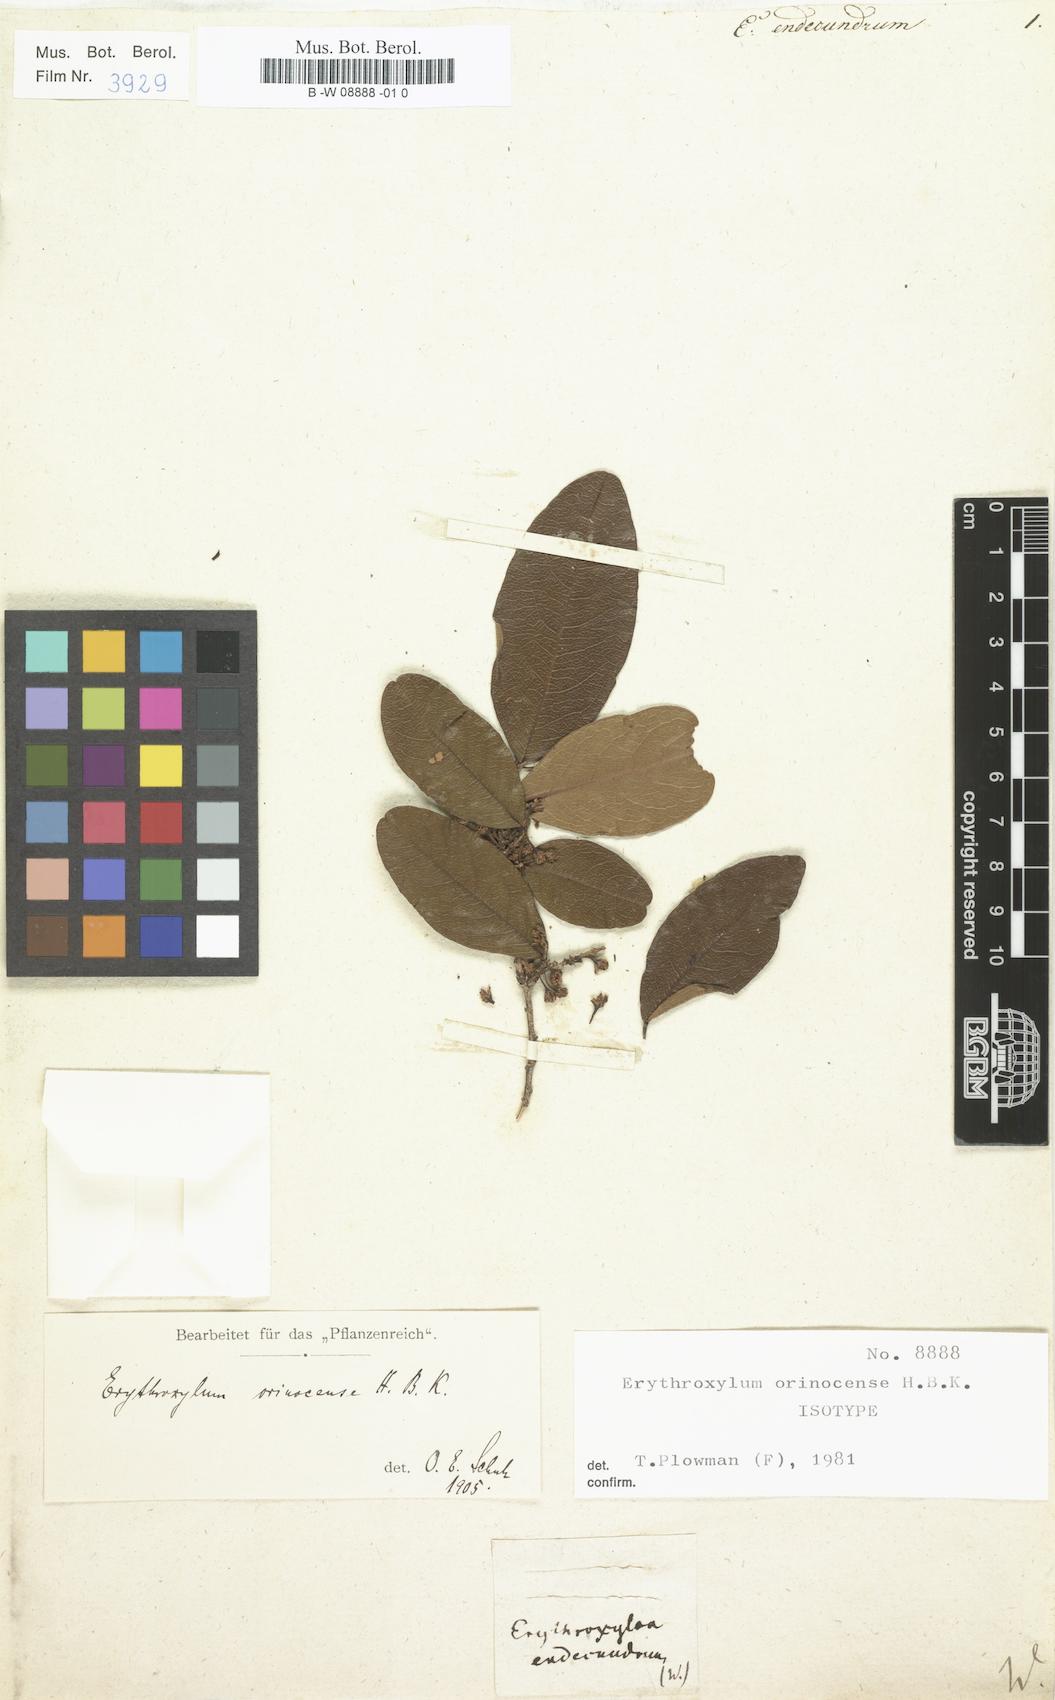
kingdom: Plantae
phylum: Tracheophyta
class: Magnoliopsida
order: Malpighiales
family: Erythroxylaceae
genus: Erythroxylum
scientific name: Erythroxylum
